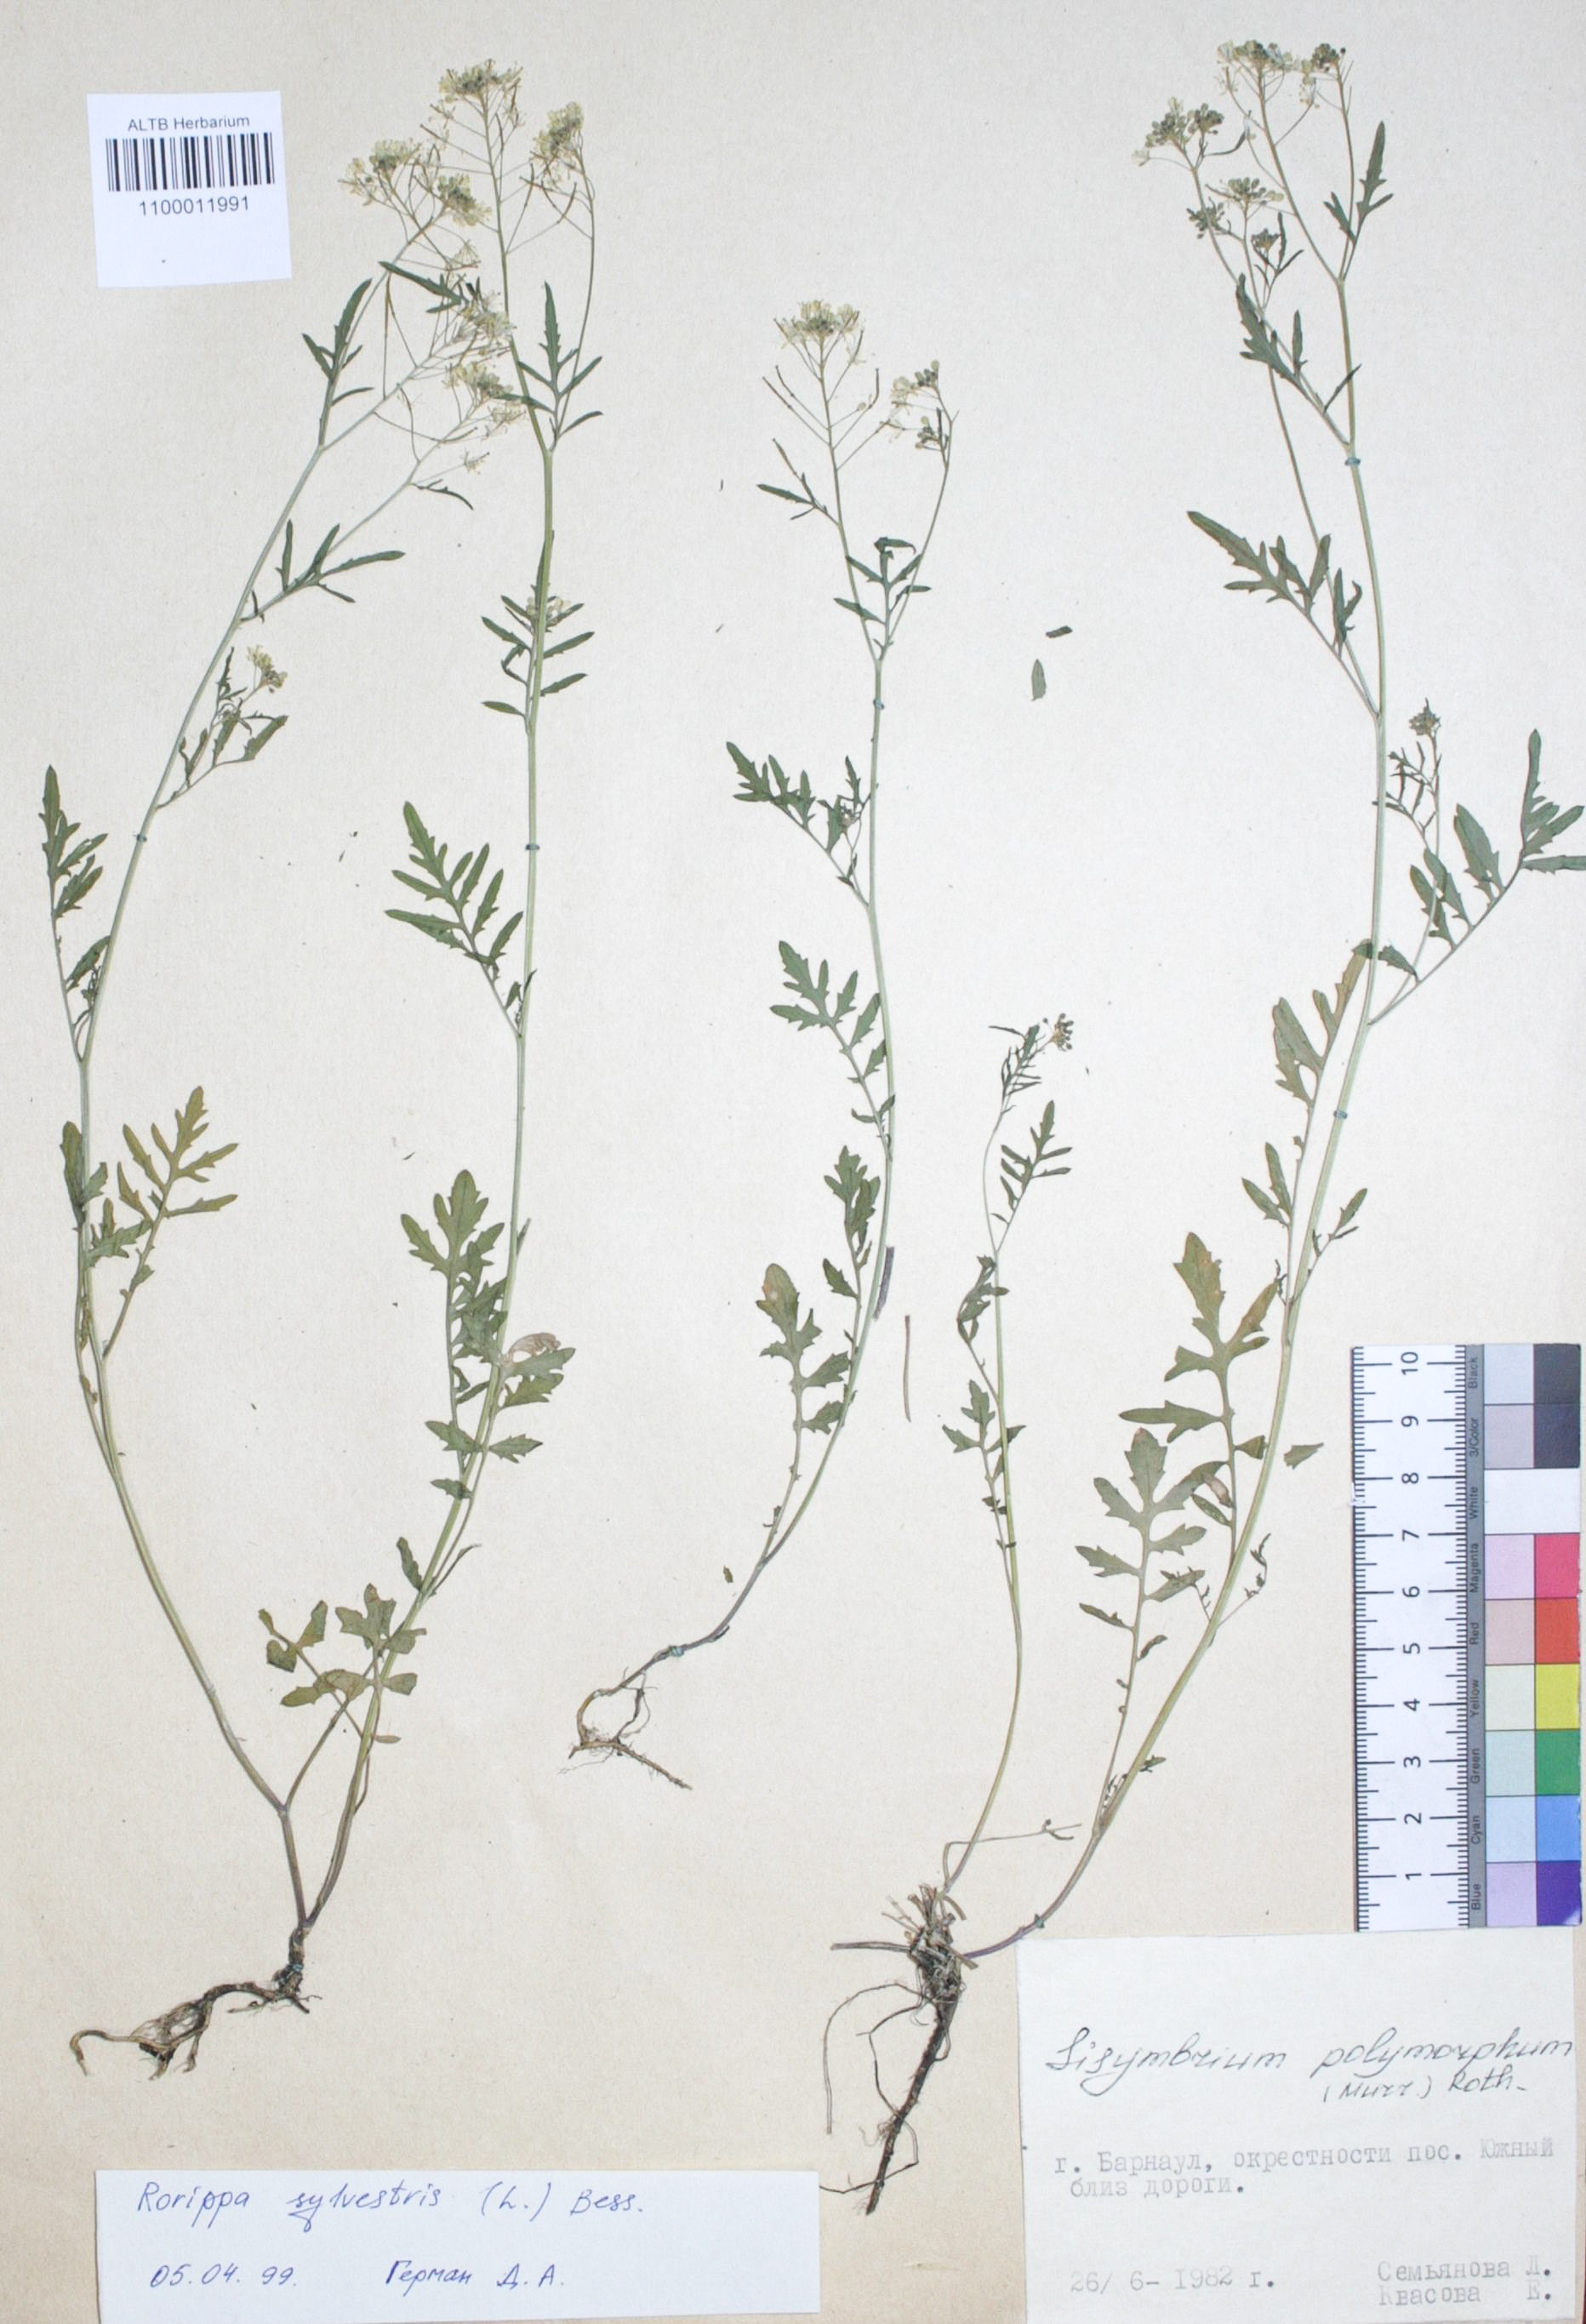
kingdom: Plantae
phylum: Tracheophyta
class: Magnoliopsida
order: Brassicales
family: Brassicaceae
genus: Sisymbrium
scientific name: Sisymbrium officinale
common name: Hedge mustard
